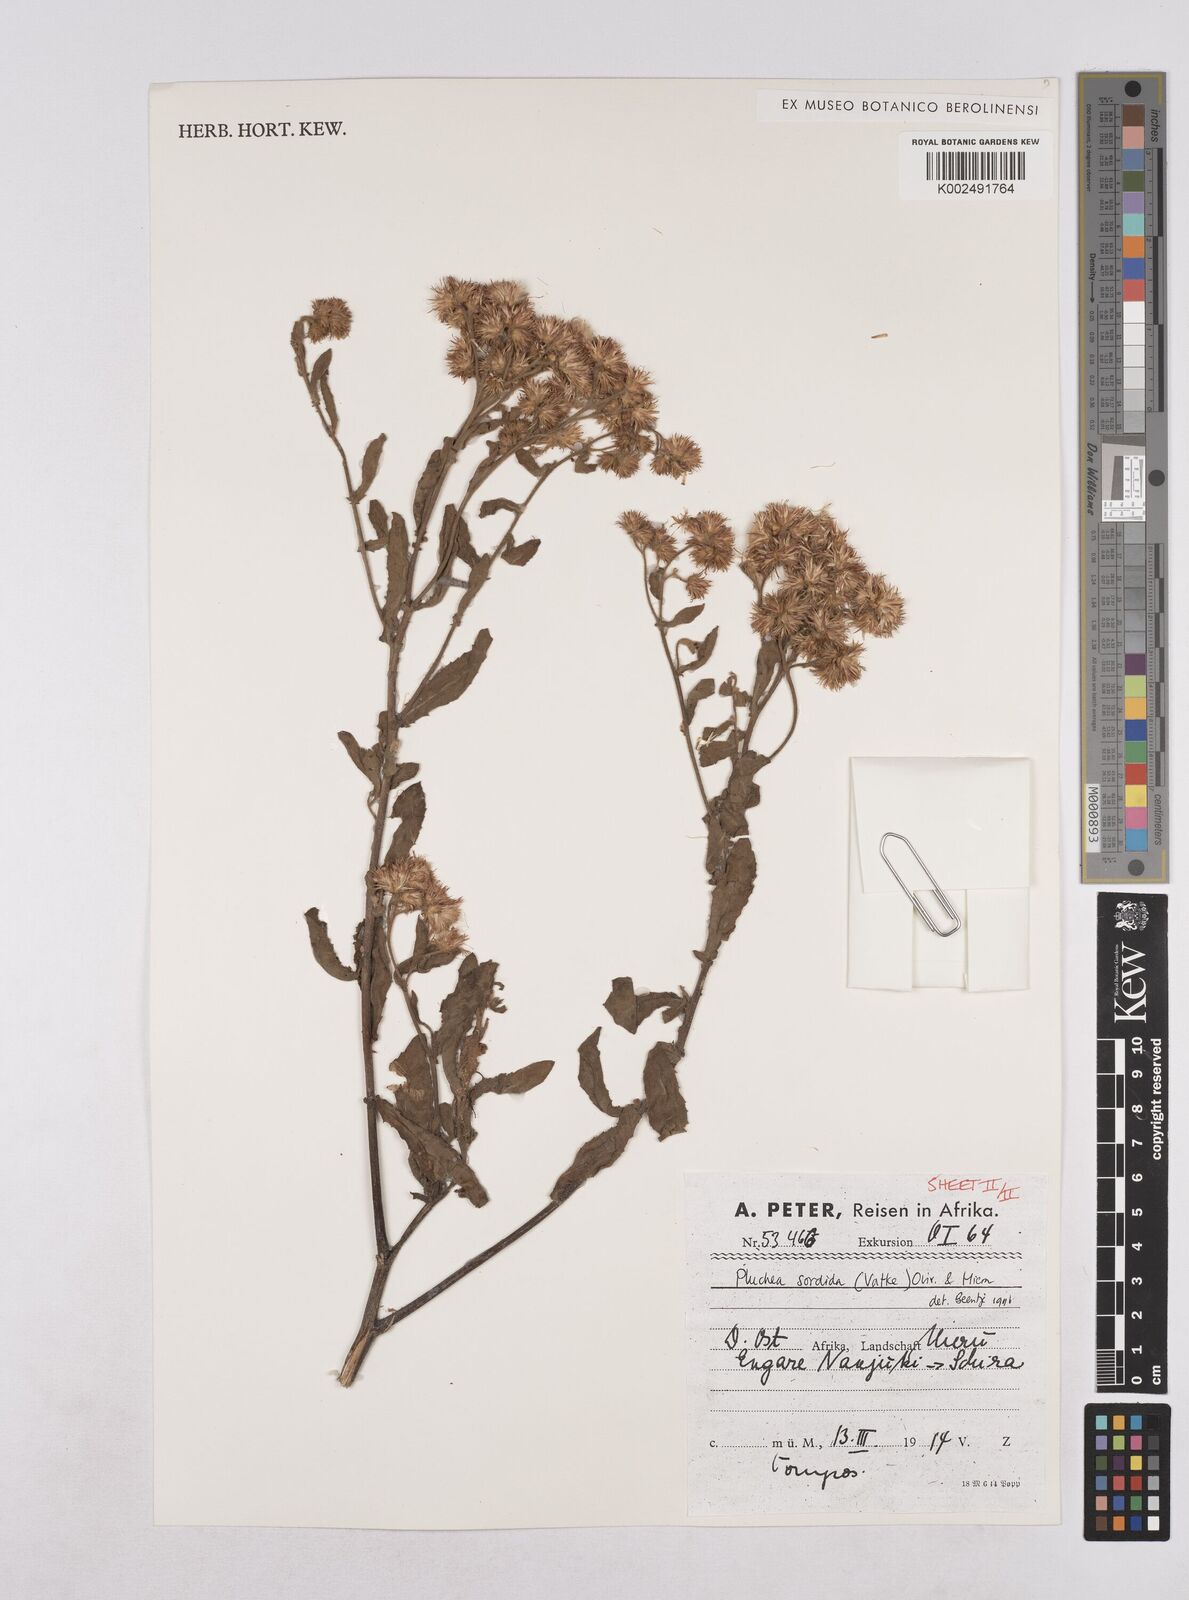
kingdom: Plantae
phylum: Tracheophyta
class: Magnoliopsida
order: Asterales
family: Asteraceae
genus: Pluchea
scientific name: Pluchea sordida
